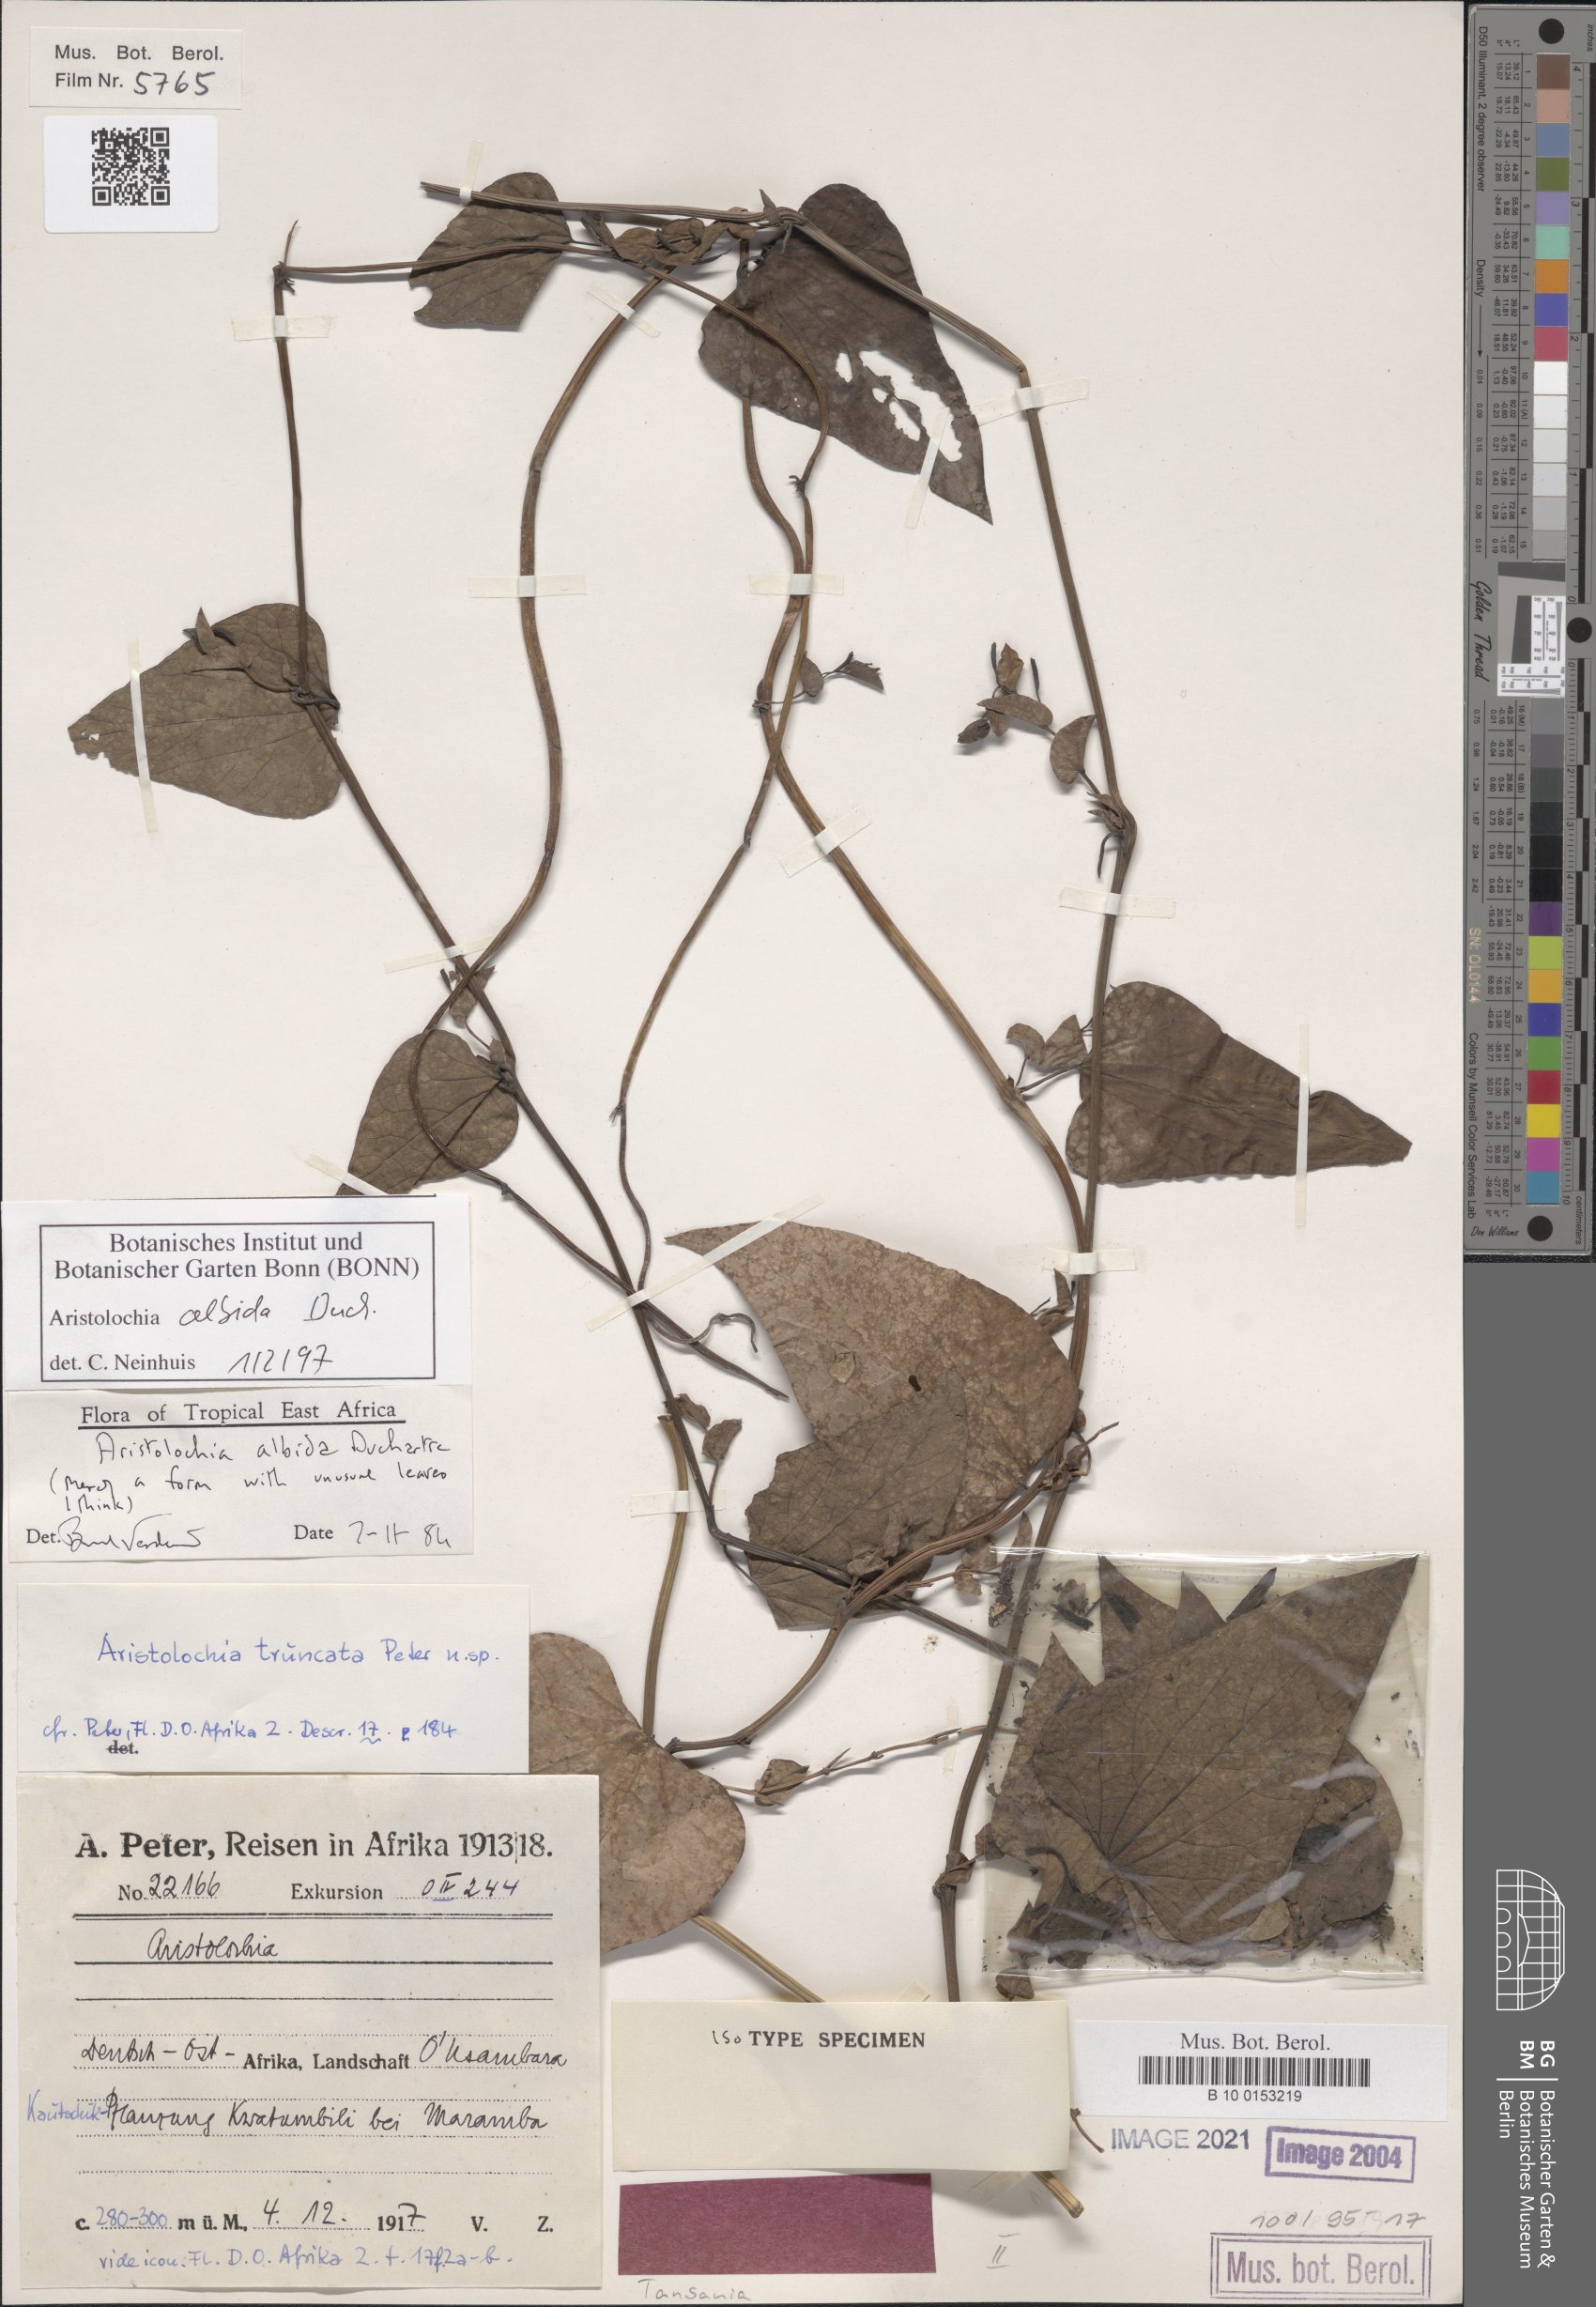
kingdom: Plantae
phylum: Tracheophyta
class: Magnoliopsida
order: Piperales
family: Aristolochiaceae
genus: Aristolochia
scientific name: Aristolochia albida
